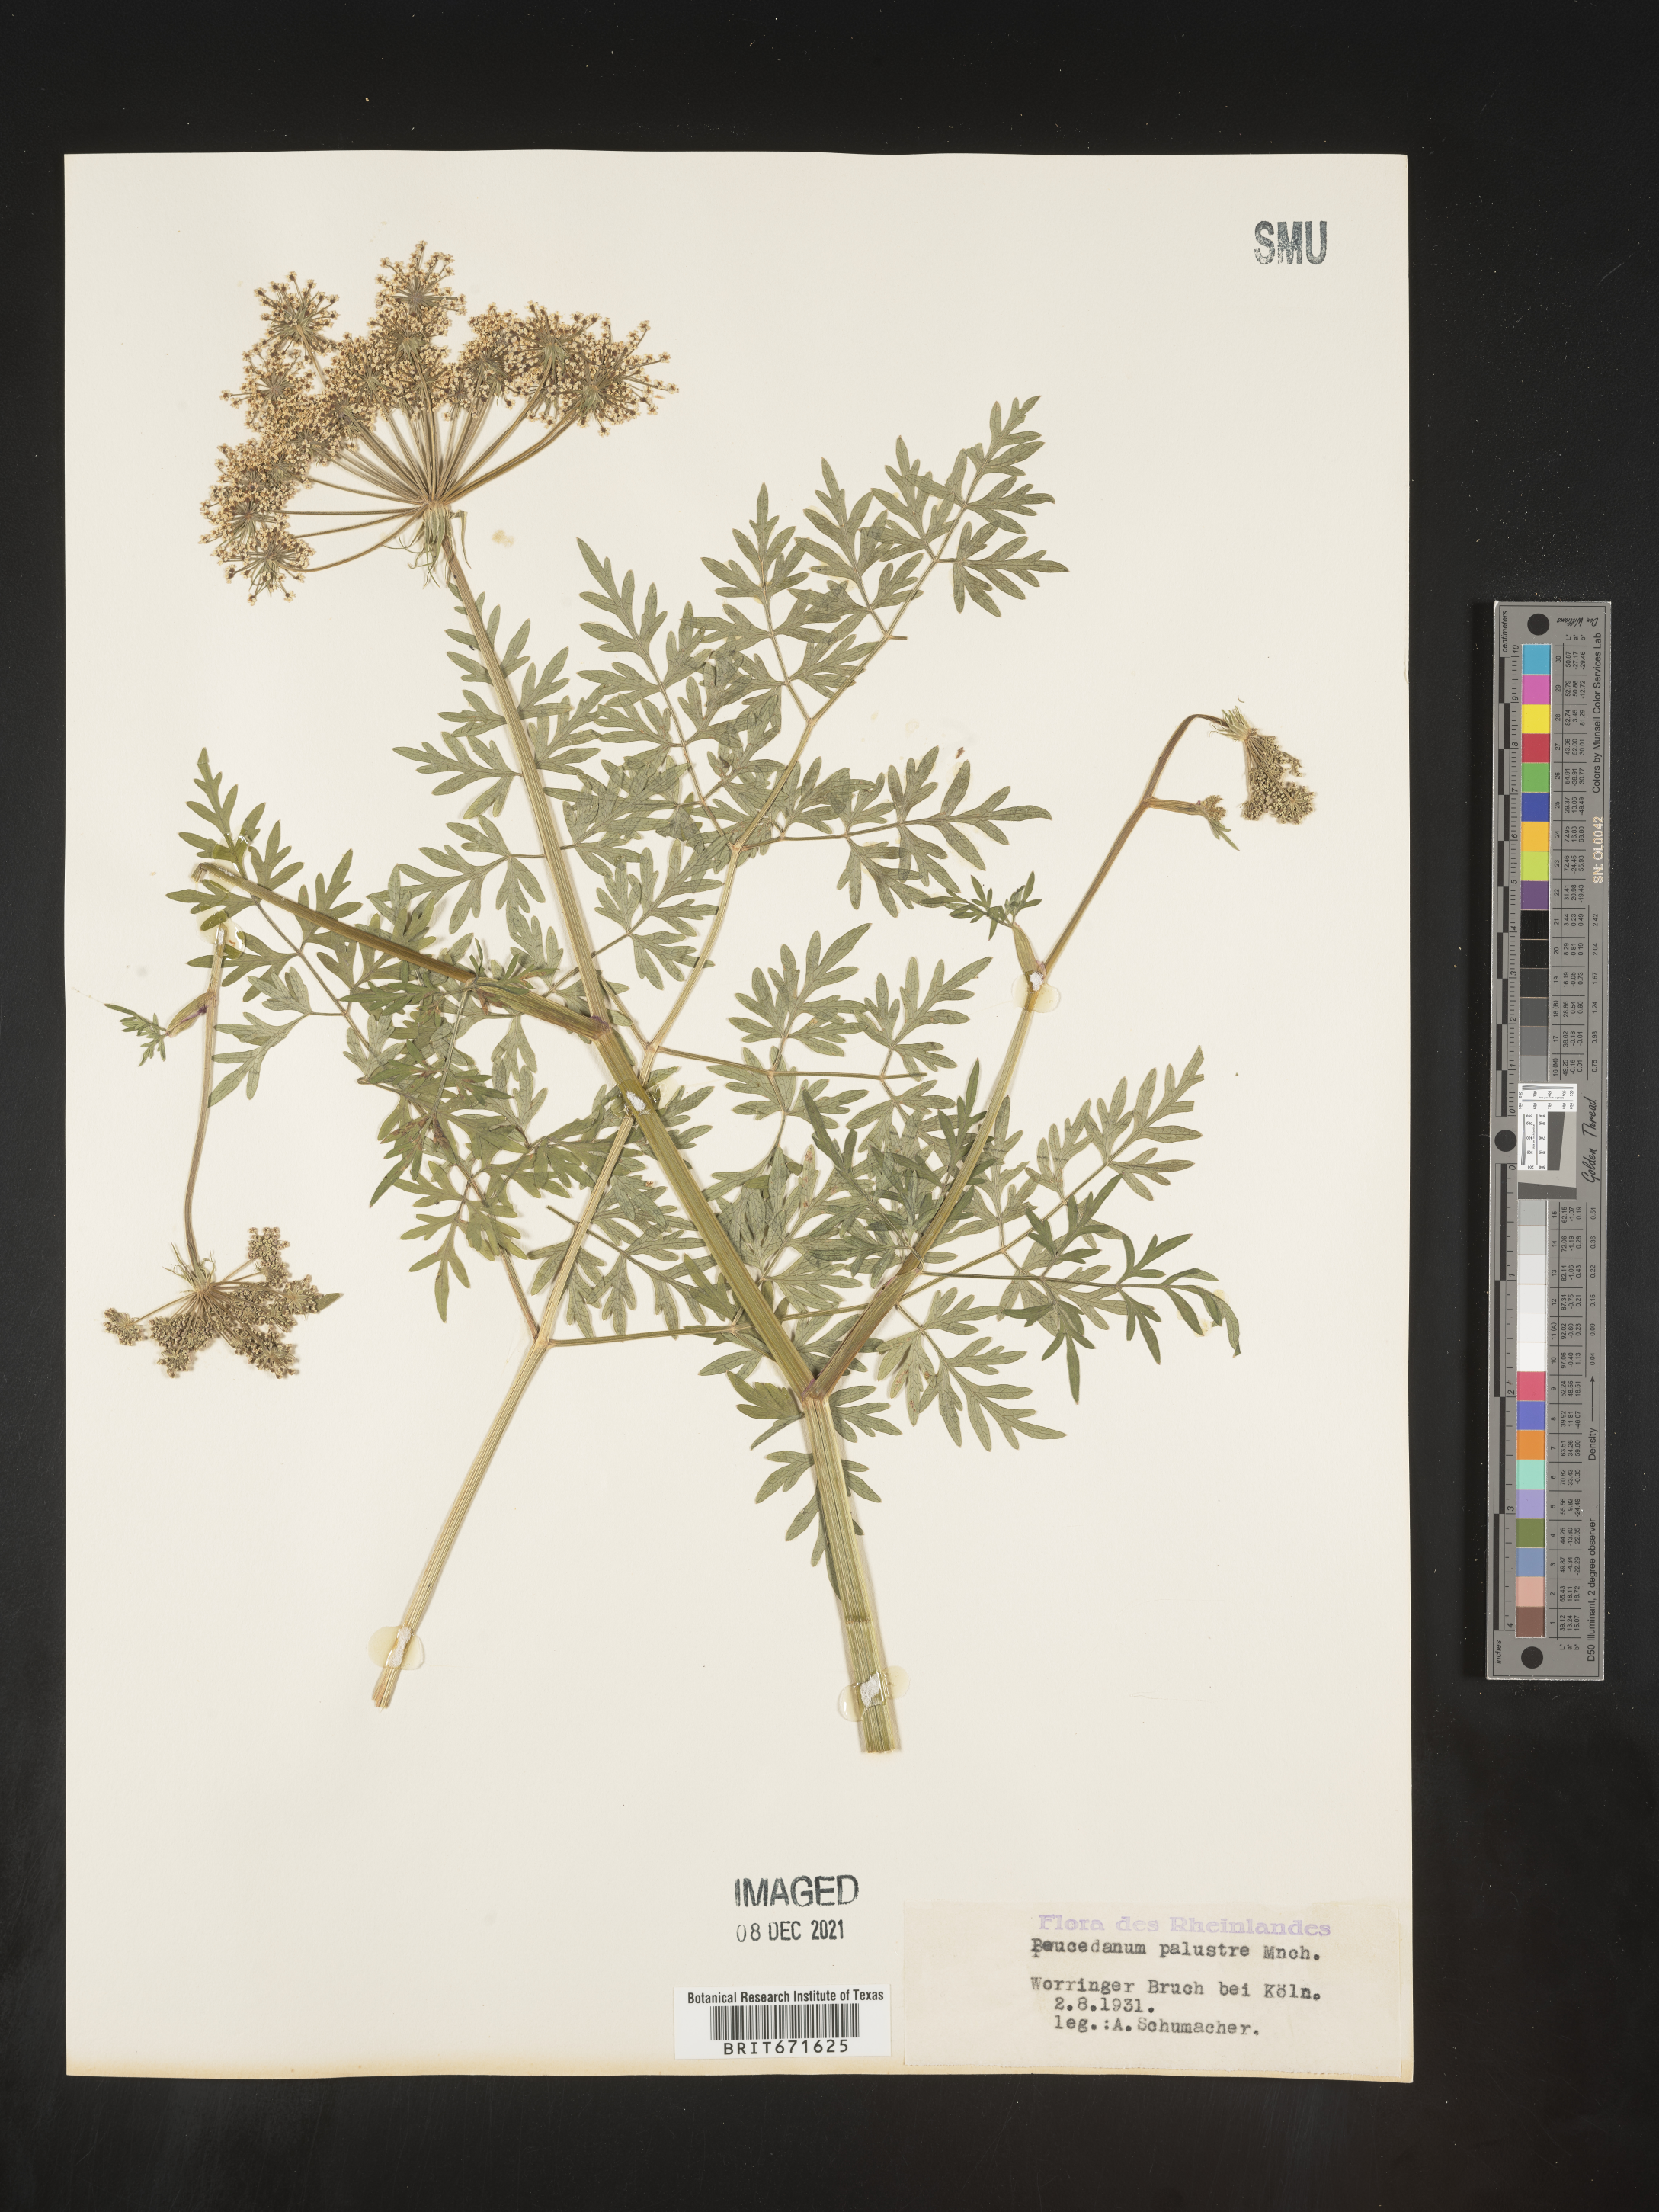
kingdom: Plantae
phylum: Tracheophyta
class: Magnoliopsida
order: Apiales
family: Apiaceae
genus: Peucedanum
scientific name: Peucedanum
